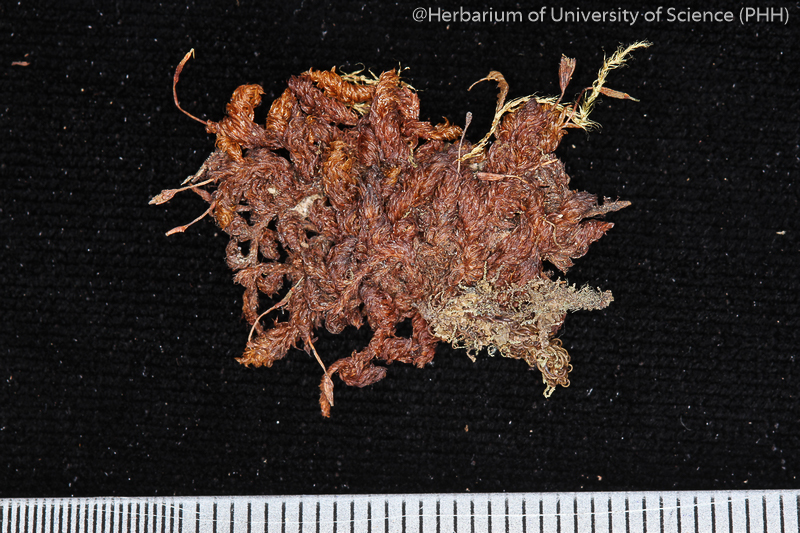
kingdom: Plantae
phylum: Bryophyta
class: Bryopsida
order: Orthotrichales
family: Orthotrichaceae
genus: Schlotheimia
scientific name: Schlotheimia ferruginea
